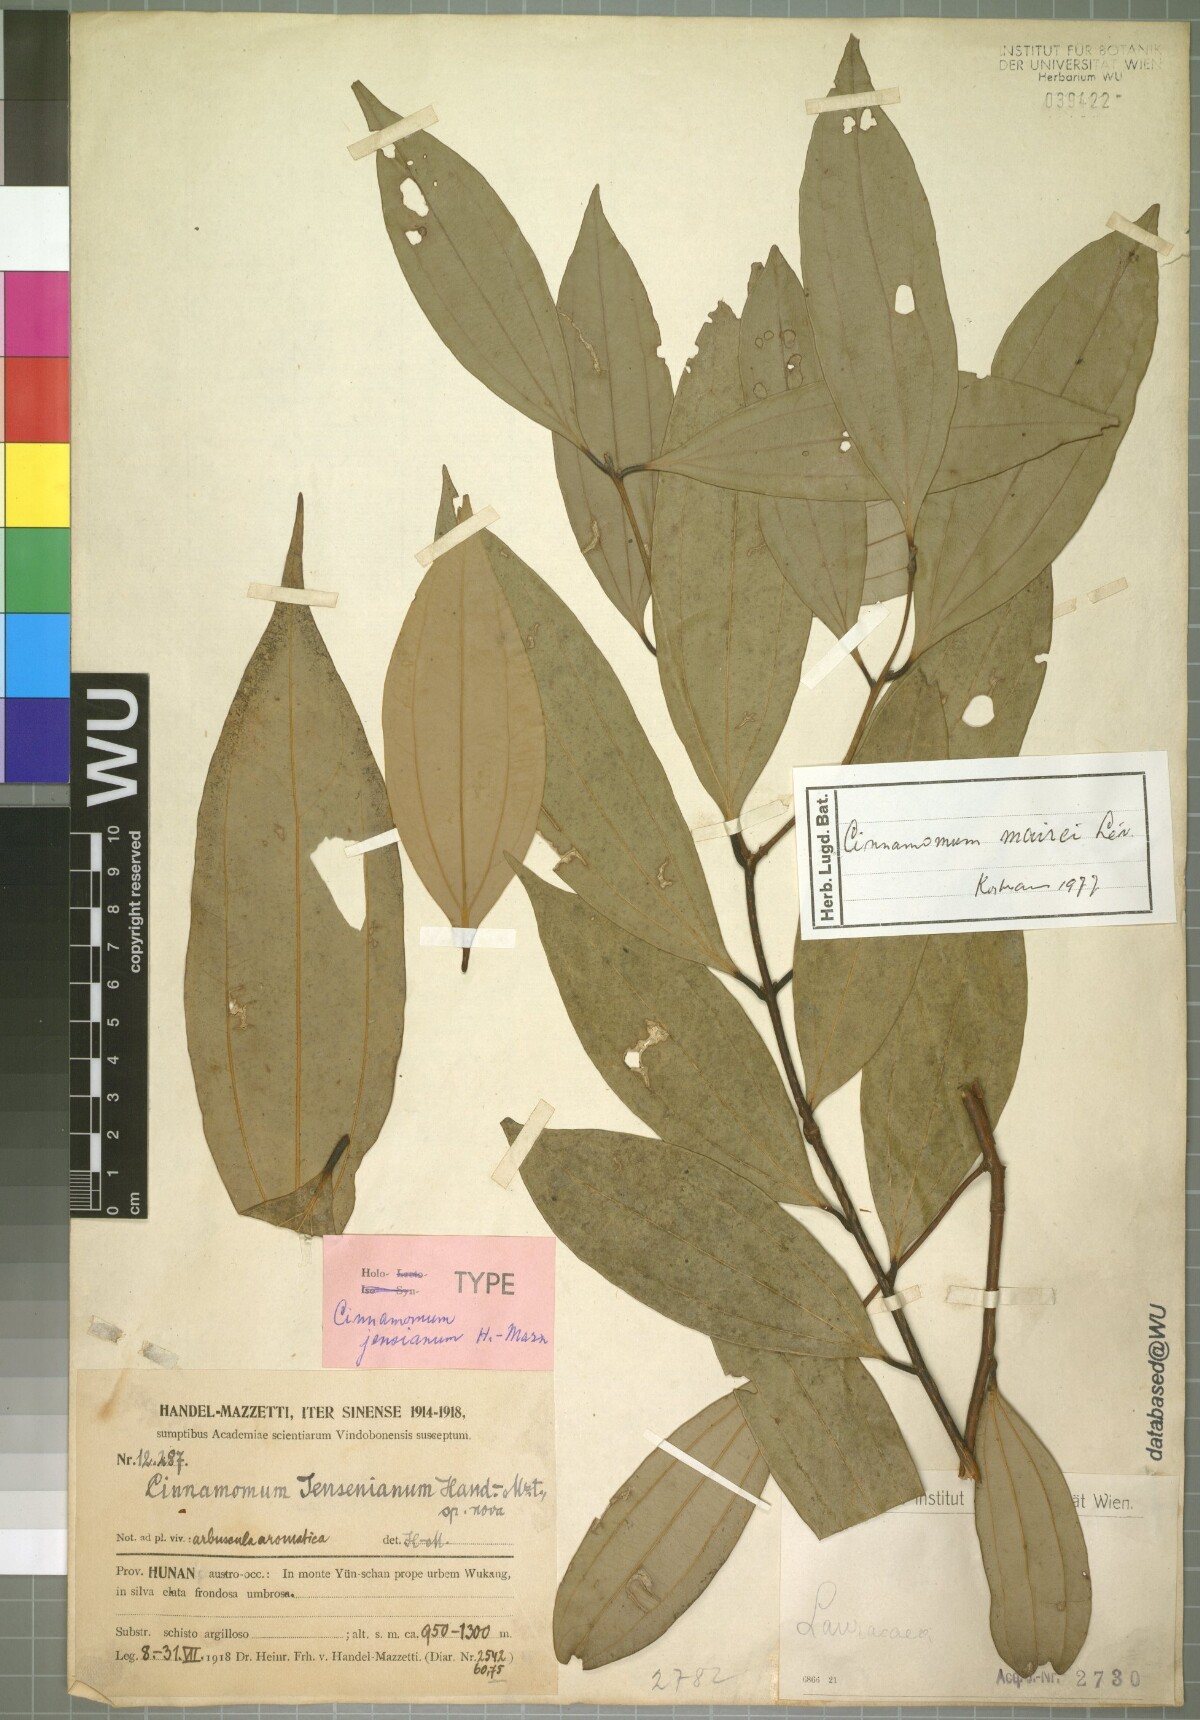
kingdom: Plantae
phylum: Tracheophyta
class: Magnoliopsida
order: Laurales
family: Lauraceae
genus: Cinnamomum
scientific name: Cinnamomum jensenianum
